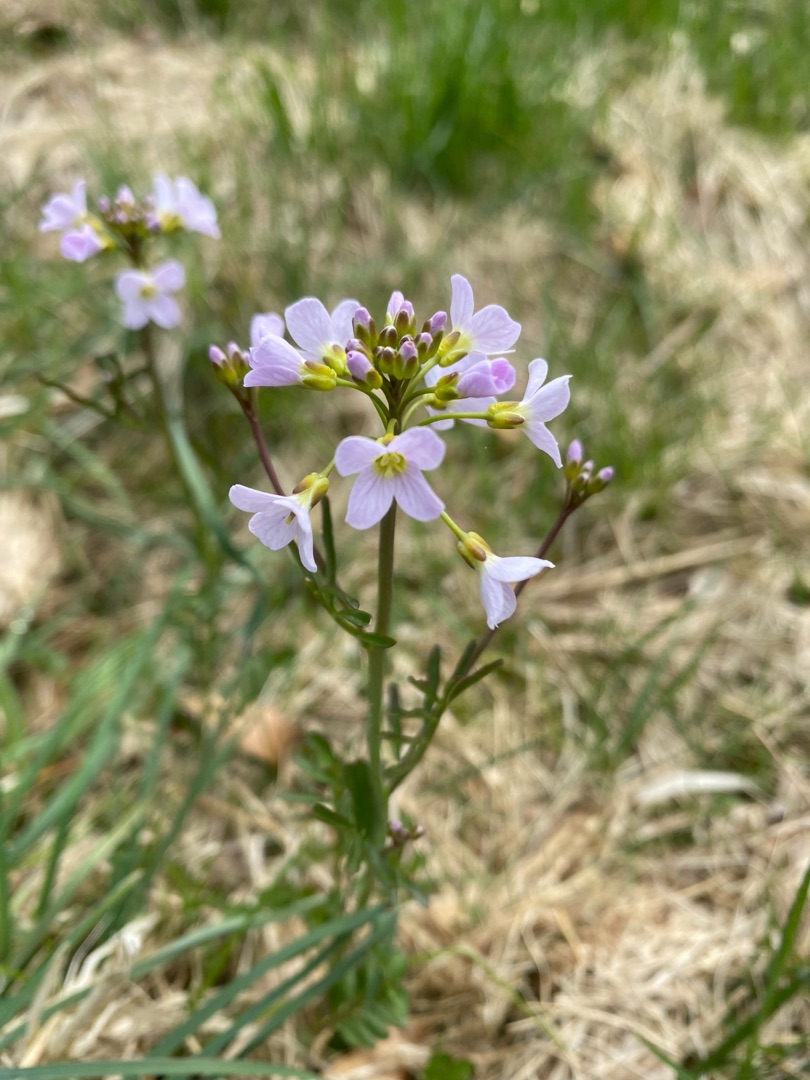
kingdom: Plantae
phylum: Tracheophyta
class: Magnoliopsida
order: Brassicales
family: Brassicaceae
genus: Cardamine
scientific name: Cardamine pratensis
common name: Engkarse
